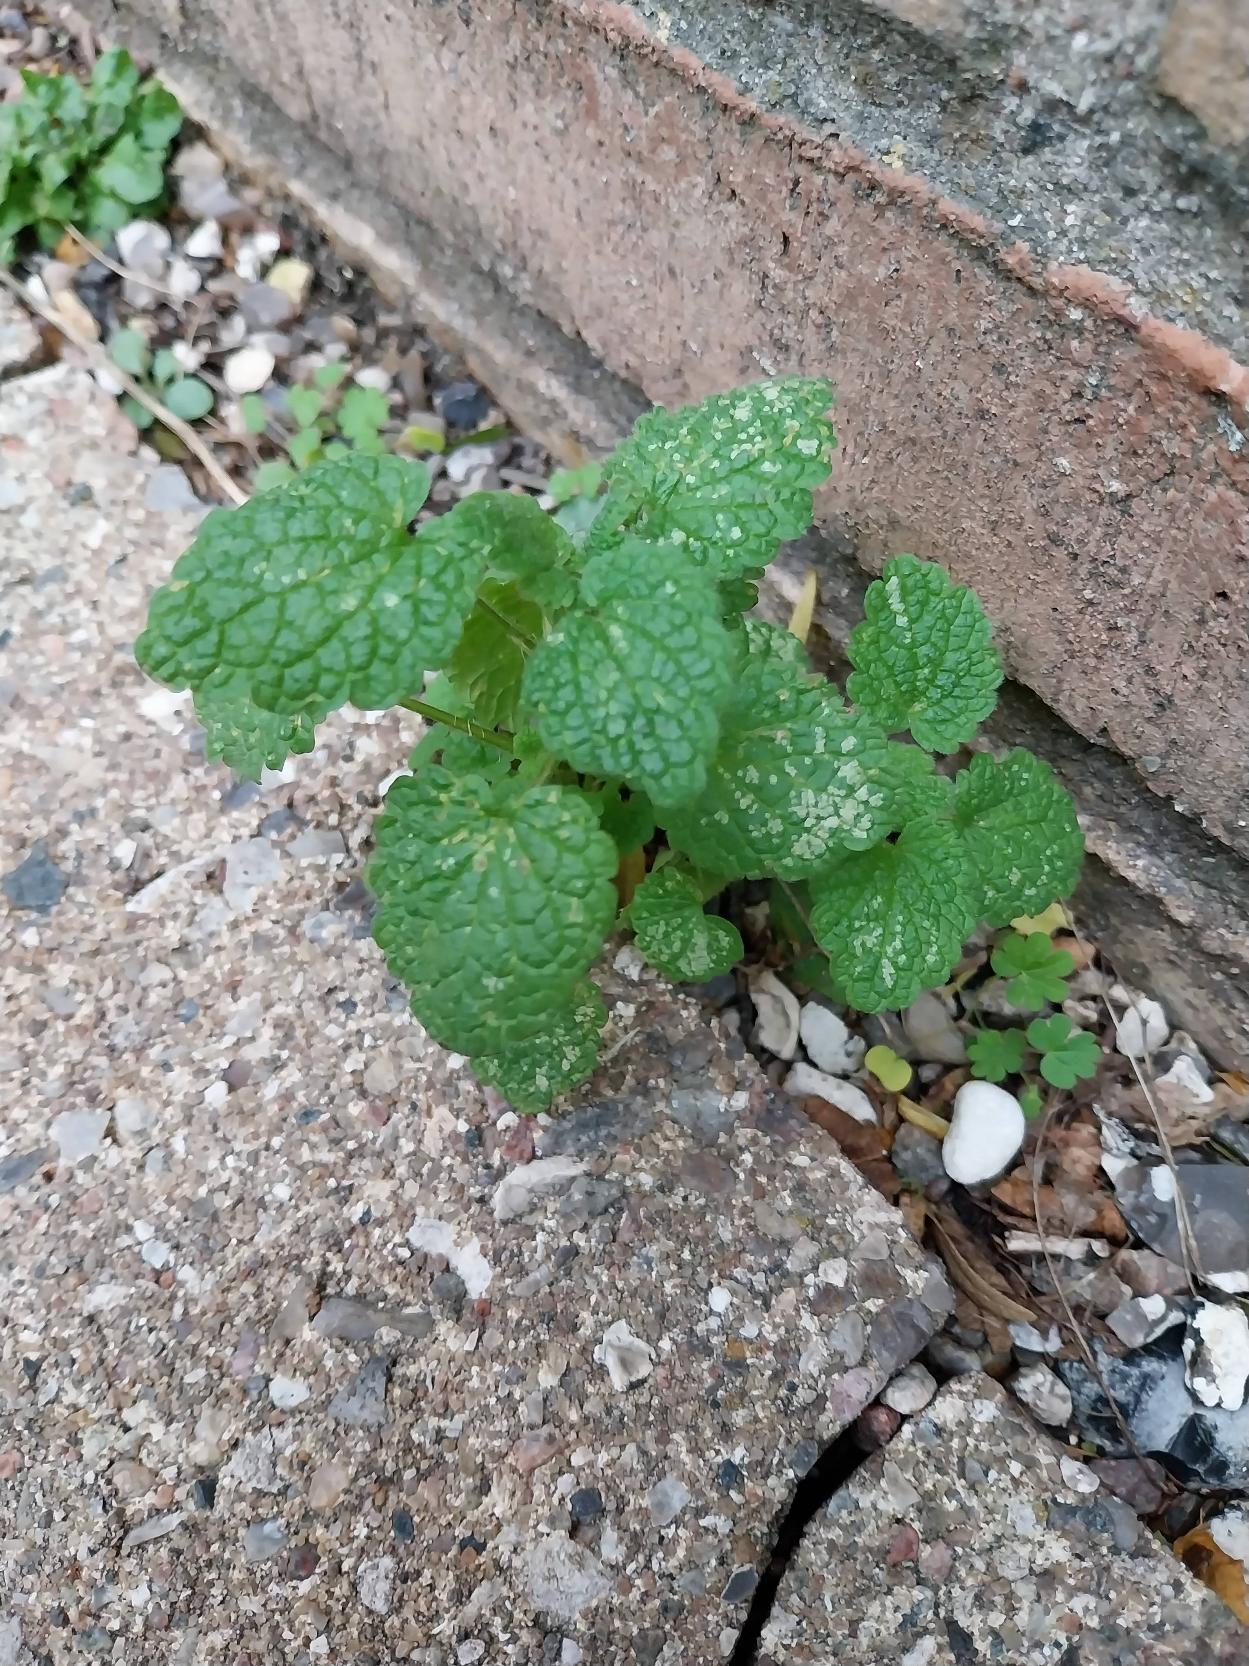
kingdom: Plantae
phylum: Tracheophyta
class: Magnoliopsida
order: Lamiales
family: Lamiaceae
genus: Lamium
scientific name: Lamium purpureum
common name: Rød tvetand
